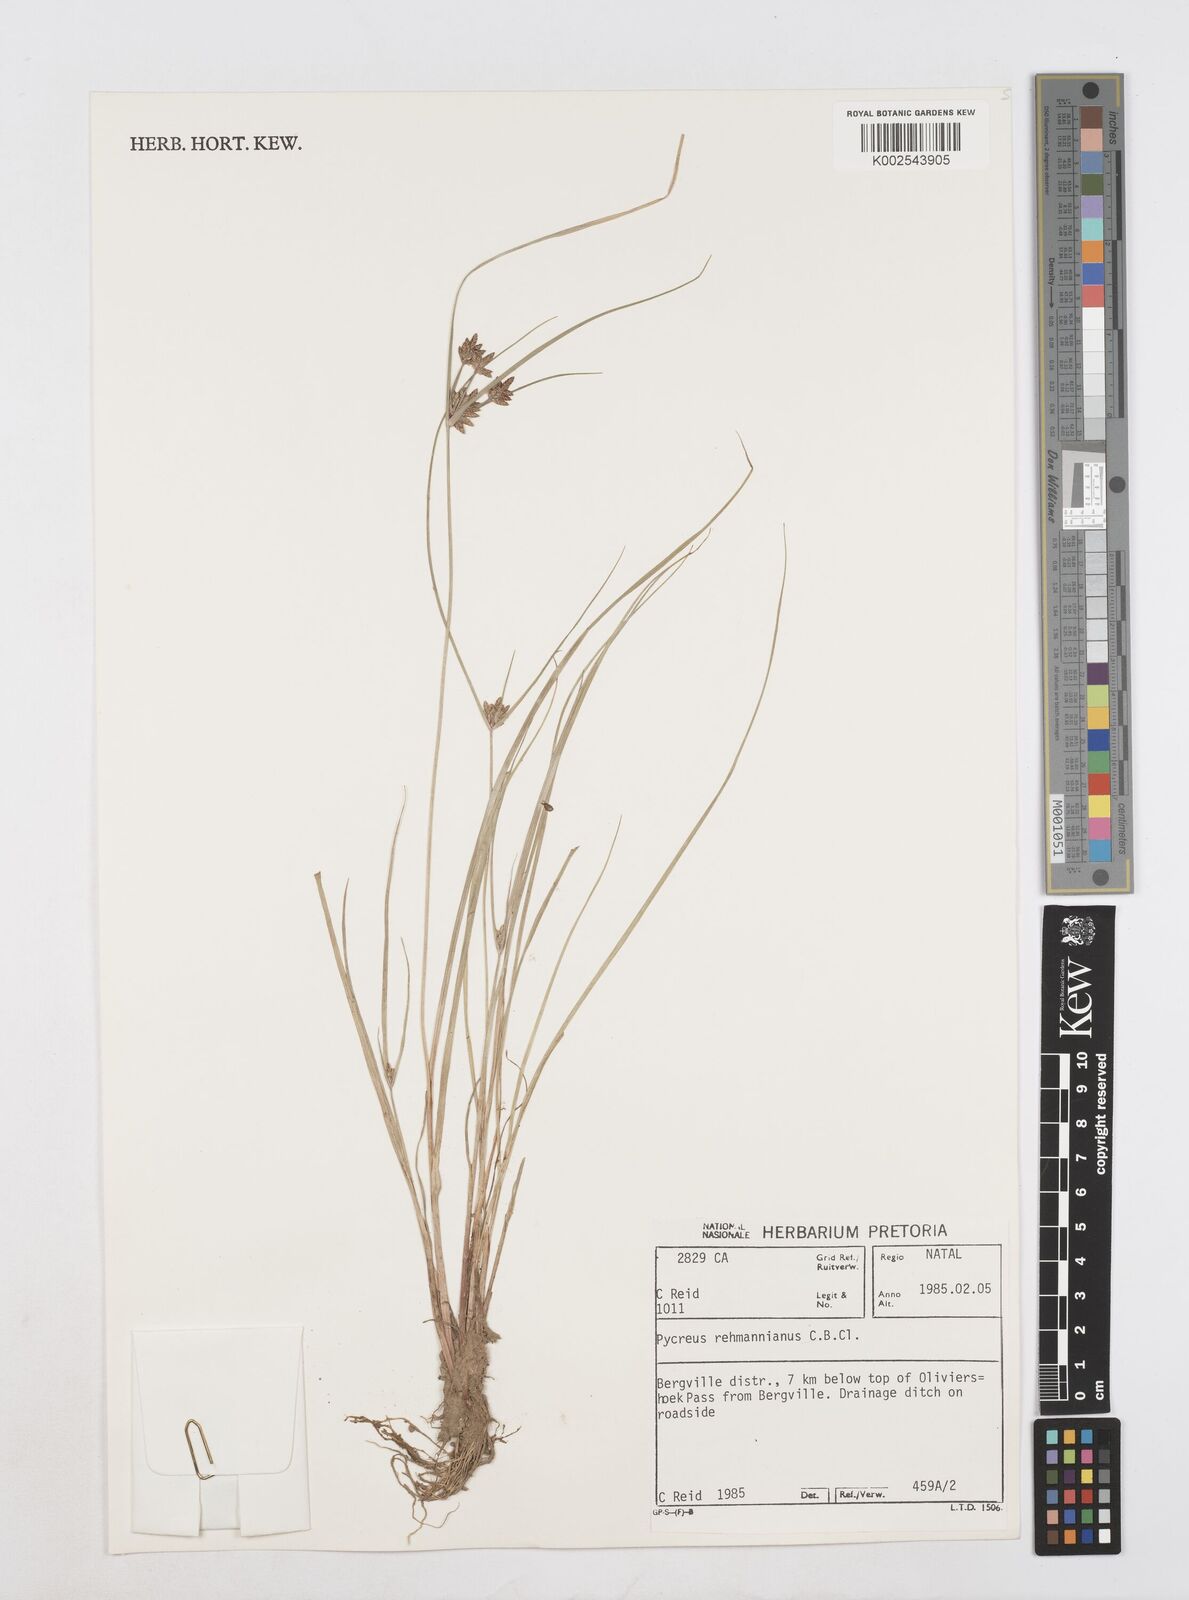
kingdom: Plantae
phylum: Tracheophyta
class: Liliopsida
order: Poales
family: Cyperaceae
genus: Cyperus
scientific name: Cyperus flavescens
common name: Yellow galingale
